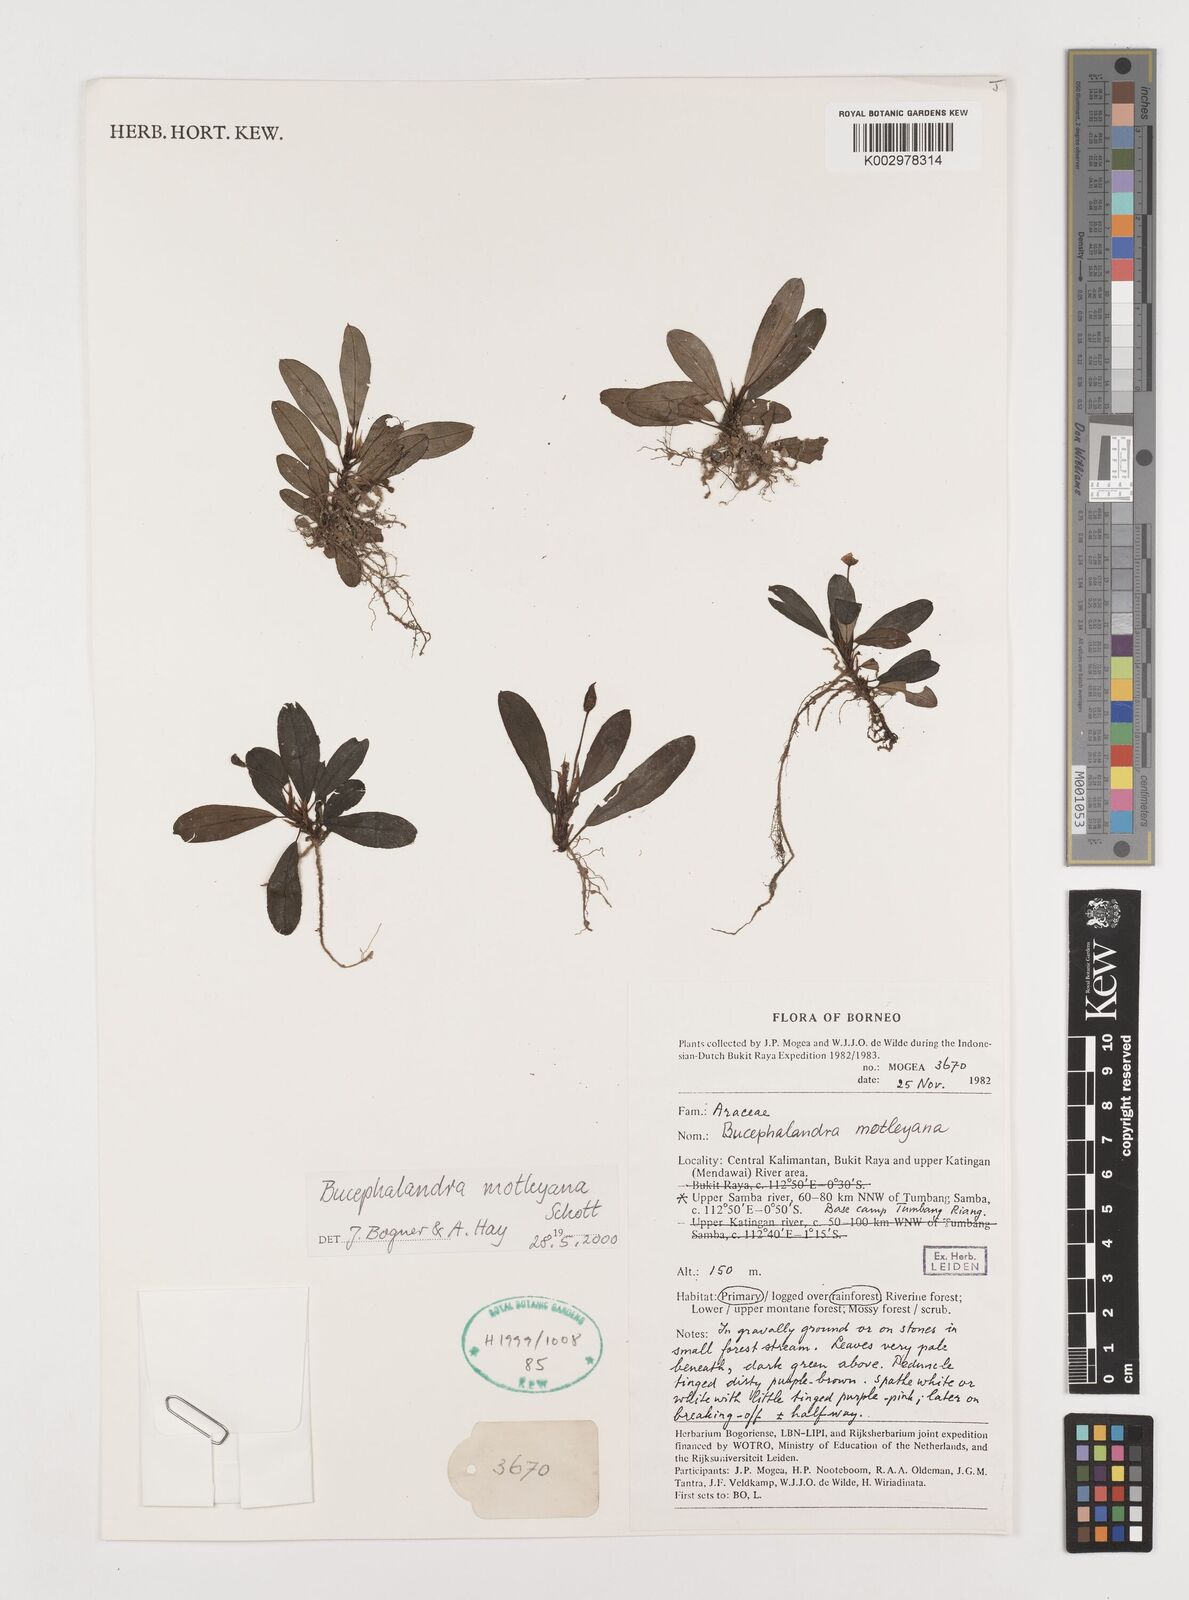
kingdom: Plantae
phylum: Tracheophyta
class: Liliopsida
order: Alismatales
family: Araceae
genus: Bucephalandra
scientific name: Bucephalandra motleyana
